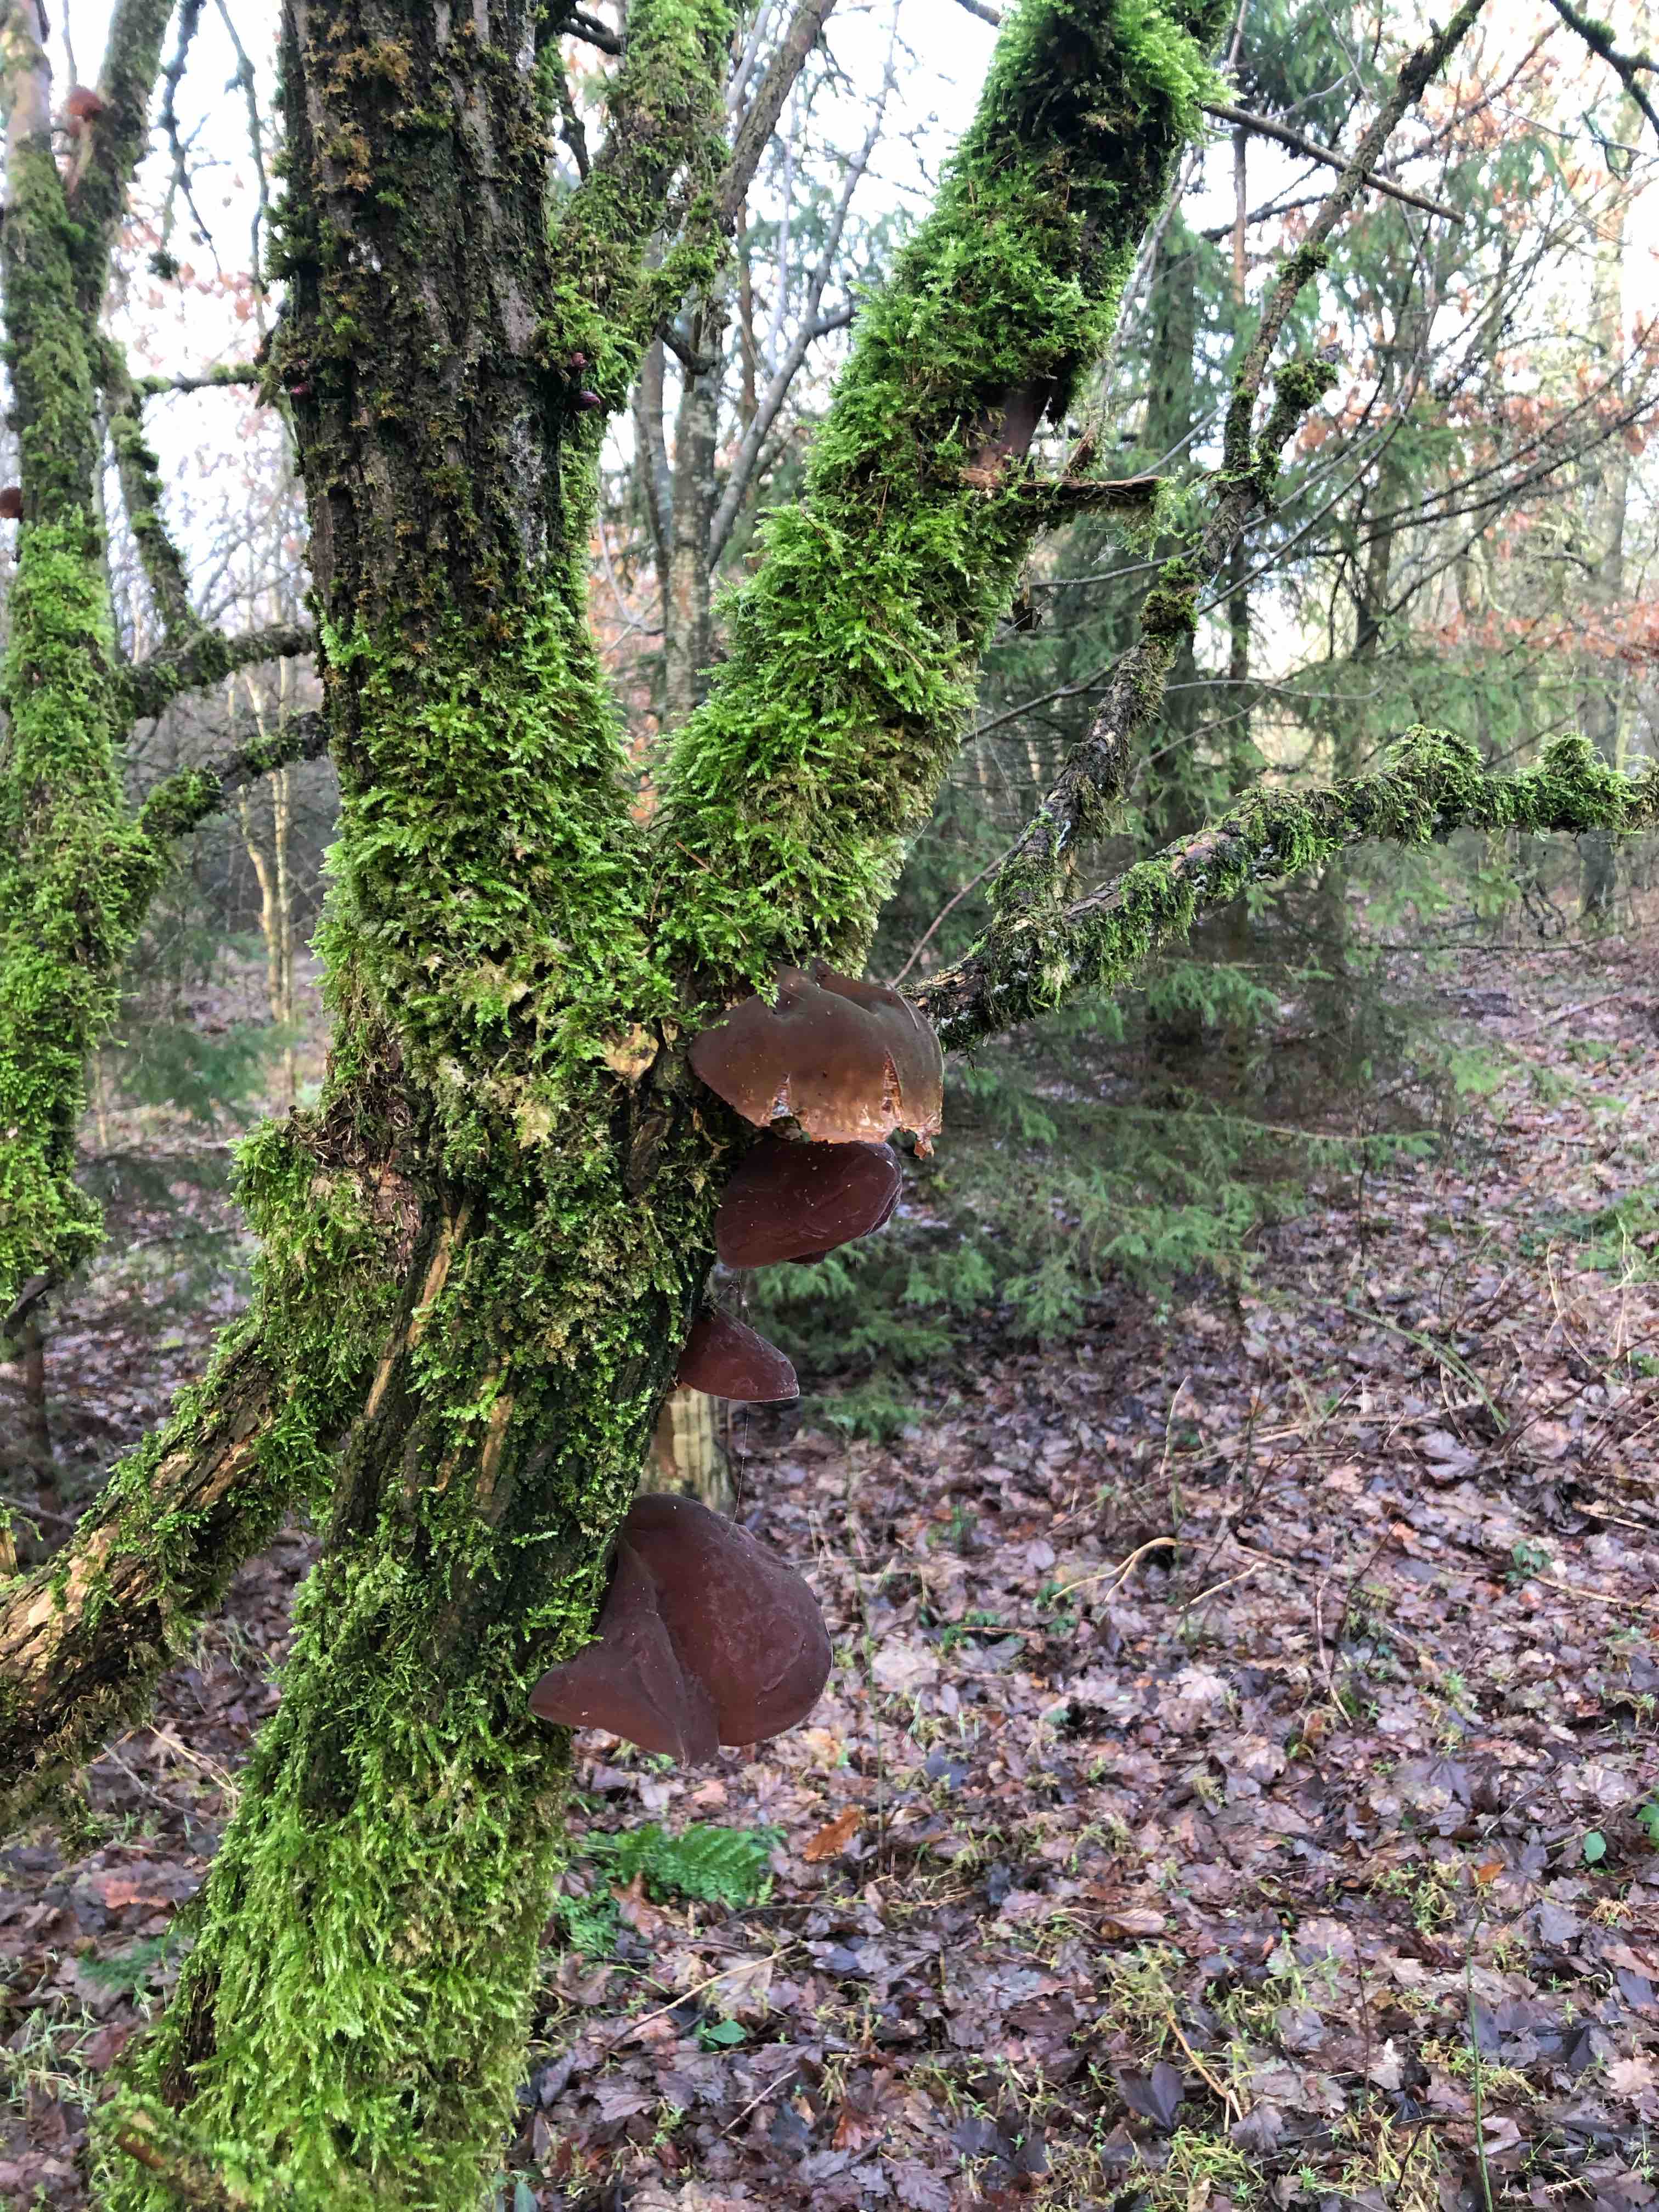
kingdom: Fungi
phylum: Basidiomycota
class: Agaricomycetes
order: Auriculariales
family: Auriculariaceae
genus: Auricularia
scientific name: Auricularia auricula-judae
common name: almindelig judasøre
